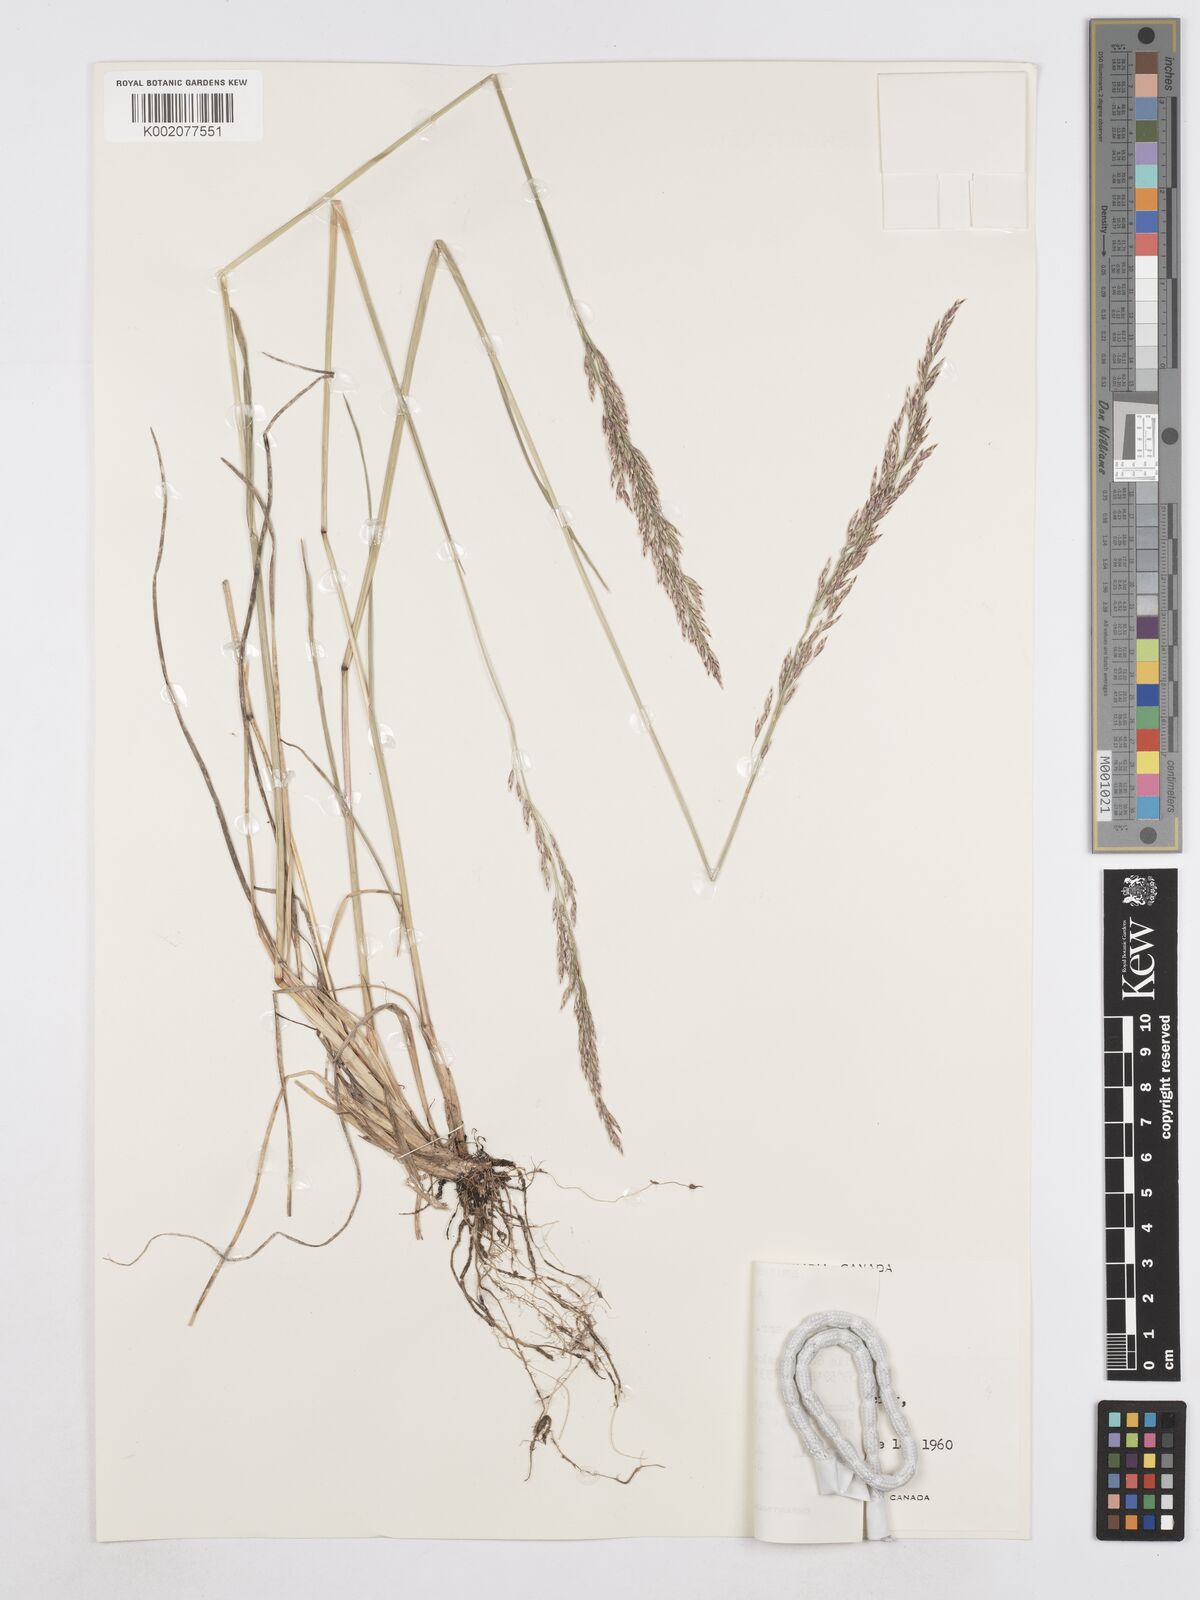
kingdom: Plantae
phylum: Tracheophyta
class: Liliopsida
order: Poales
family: Poaceae
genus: Poa
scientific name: Poa secunda
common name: Sandberg bluegrass
